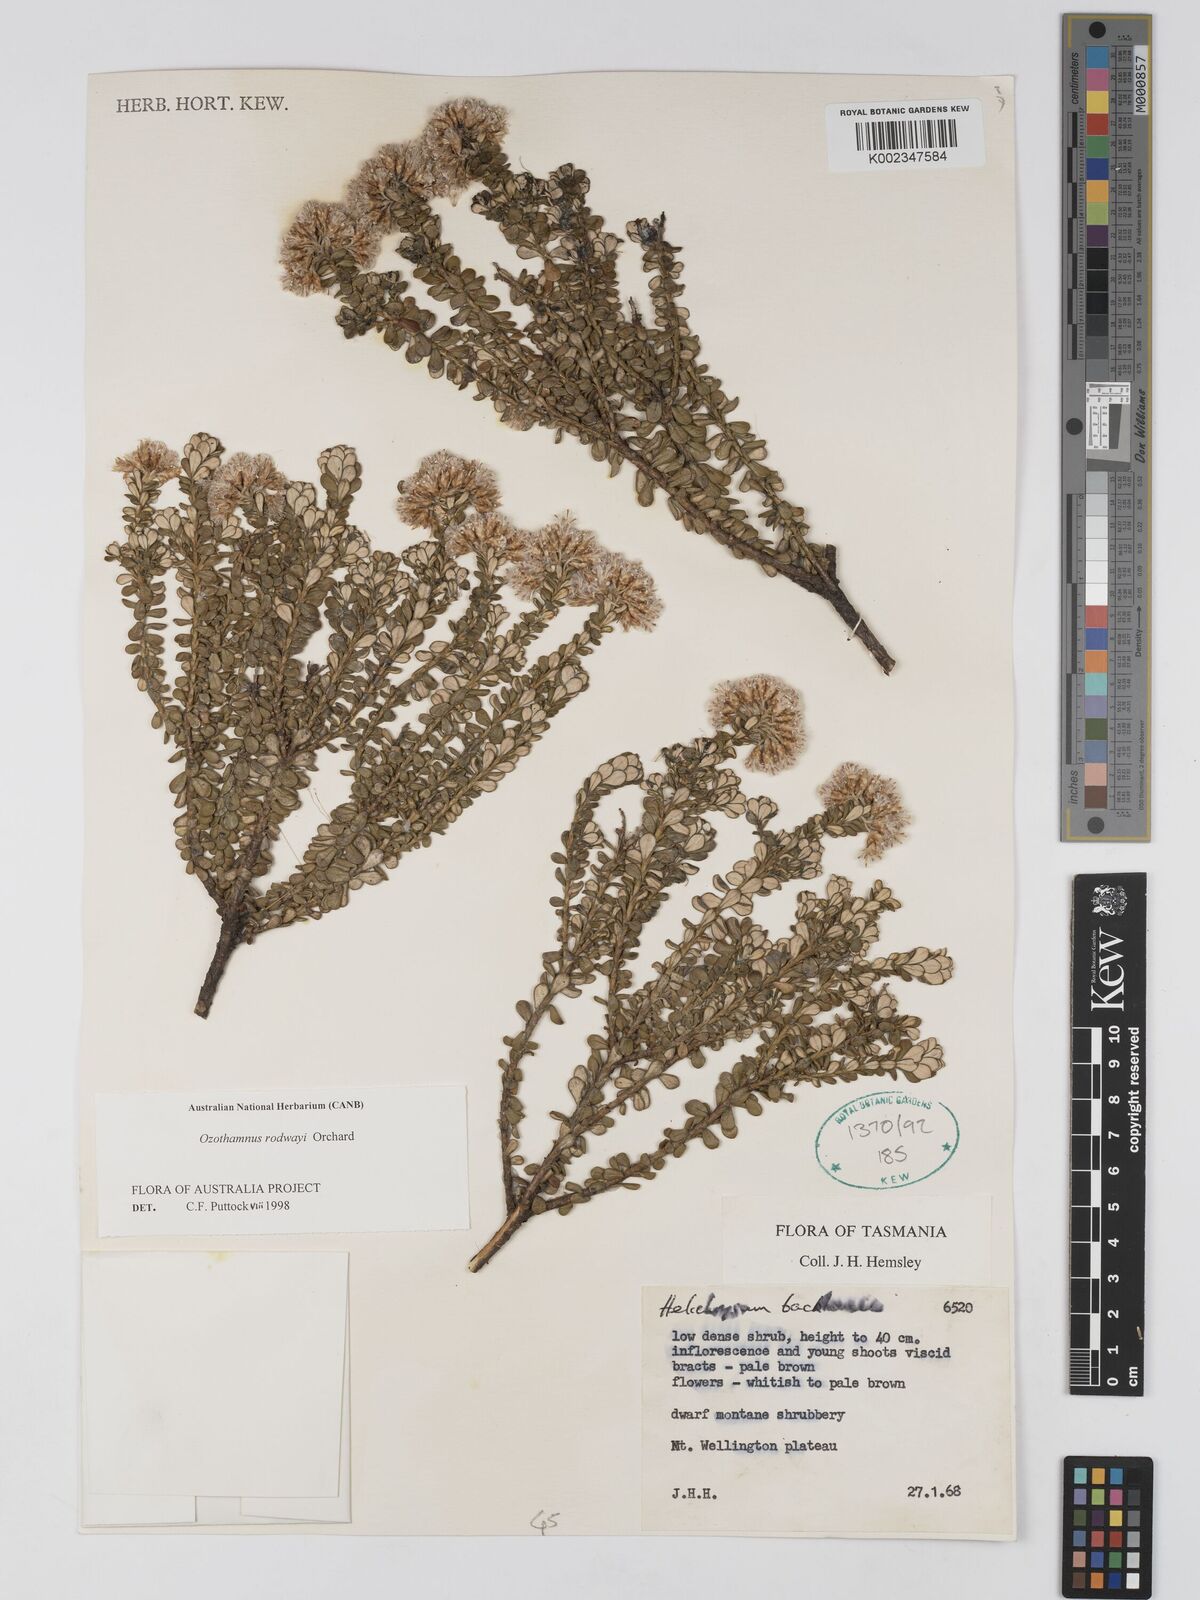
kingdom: Plantae
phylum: Tracheophyta
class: Magnoliopsida
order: Asterales
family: Asteraceae
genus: Ozothamnus
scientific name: Ozothamnus rodwayi
